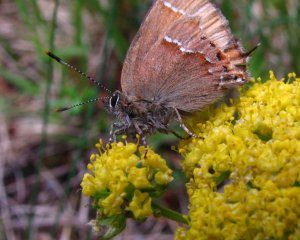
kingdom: Animalia
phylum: Arthropoda
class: Insecta
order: Lepidoptera
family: Lycaenidae
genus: Mitoura
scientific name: Mitoura gryneus
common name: Juniper Hairstreak
